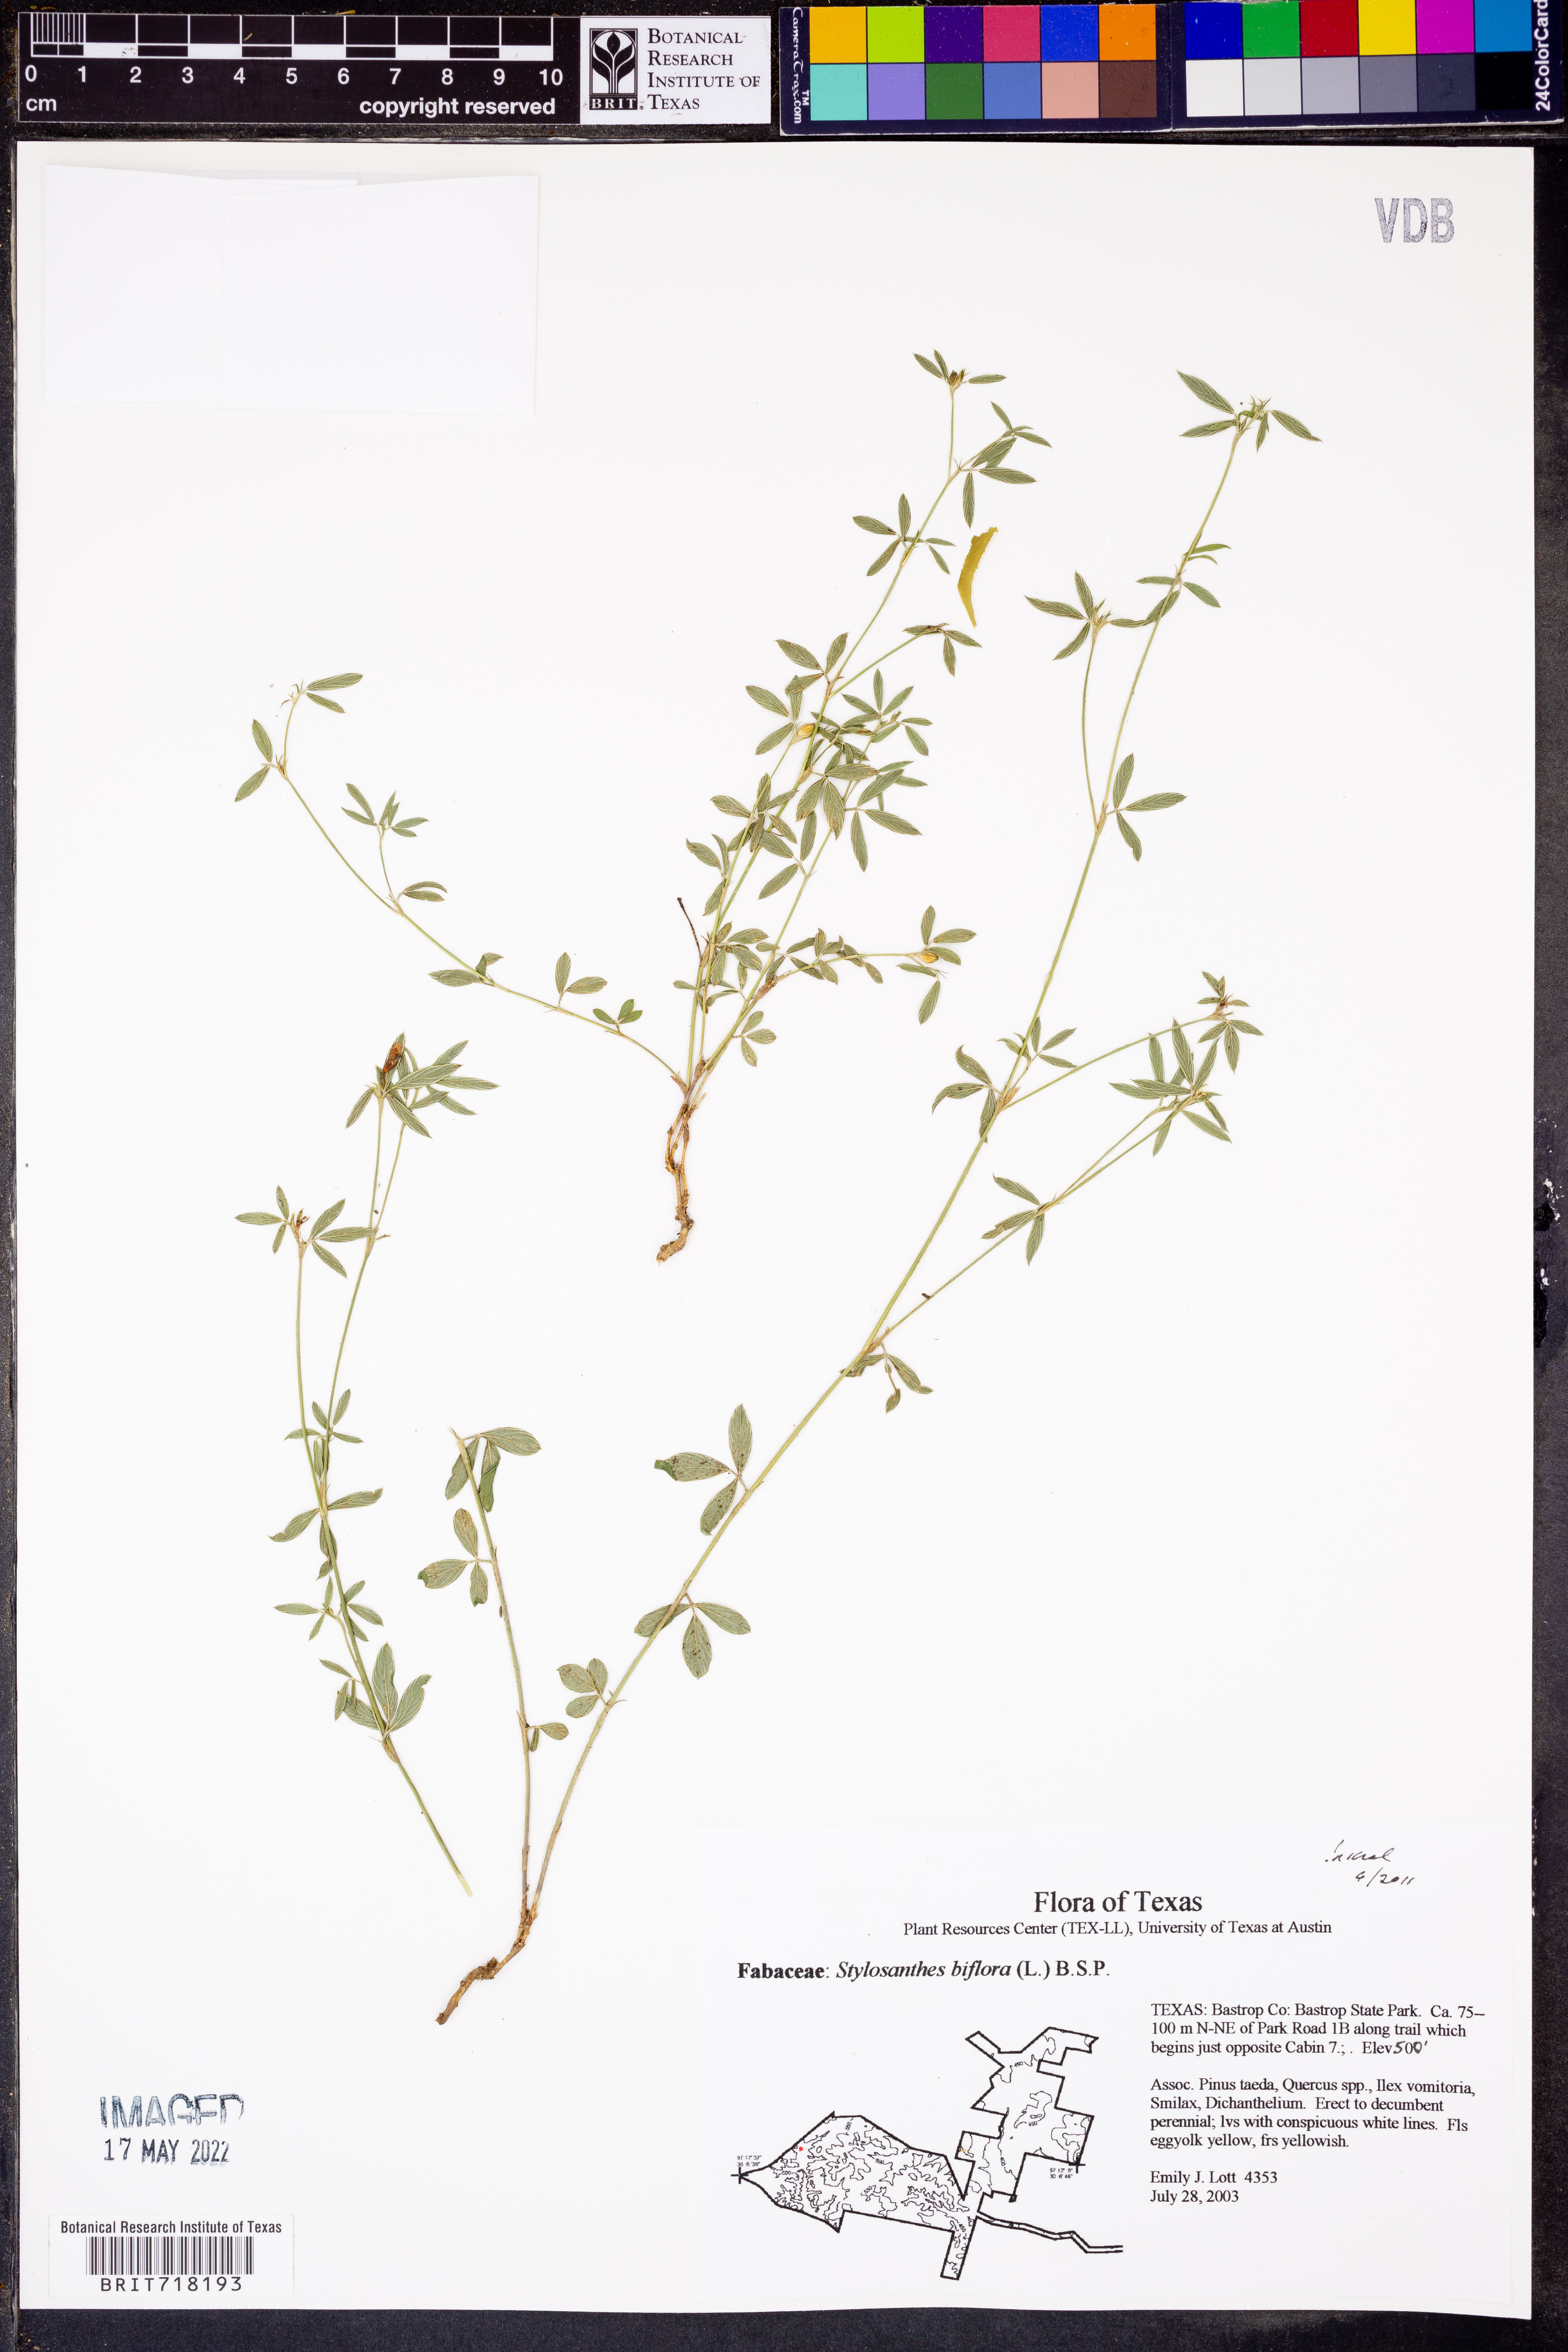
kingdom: Plantae
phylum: Tracheophyta
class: Magnoliopsida
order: Fabales
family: Fabaceae
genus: Stylosanthes
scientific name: Stylosanthes biflora
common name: Two-flower pencil-flower
